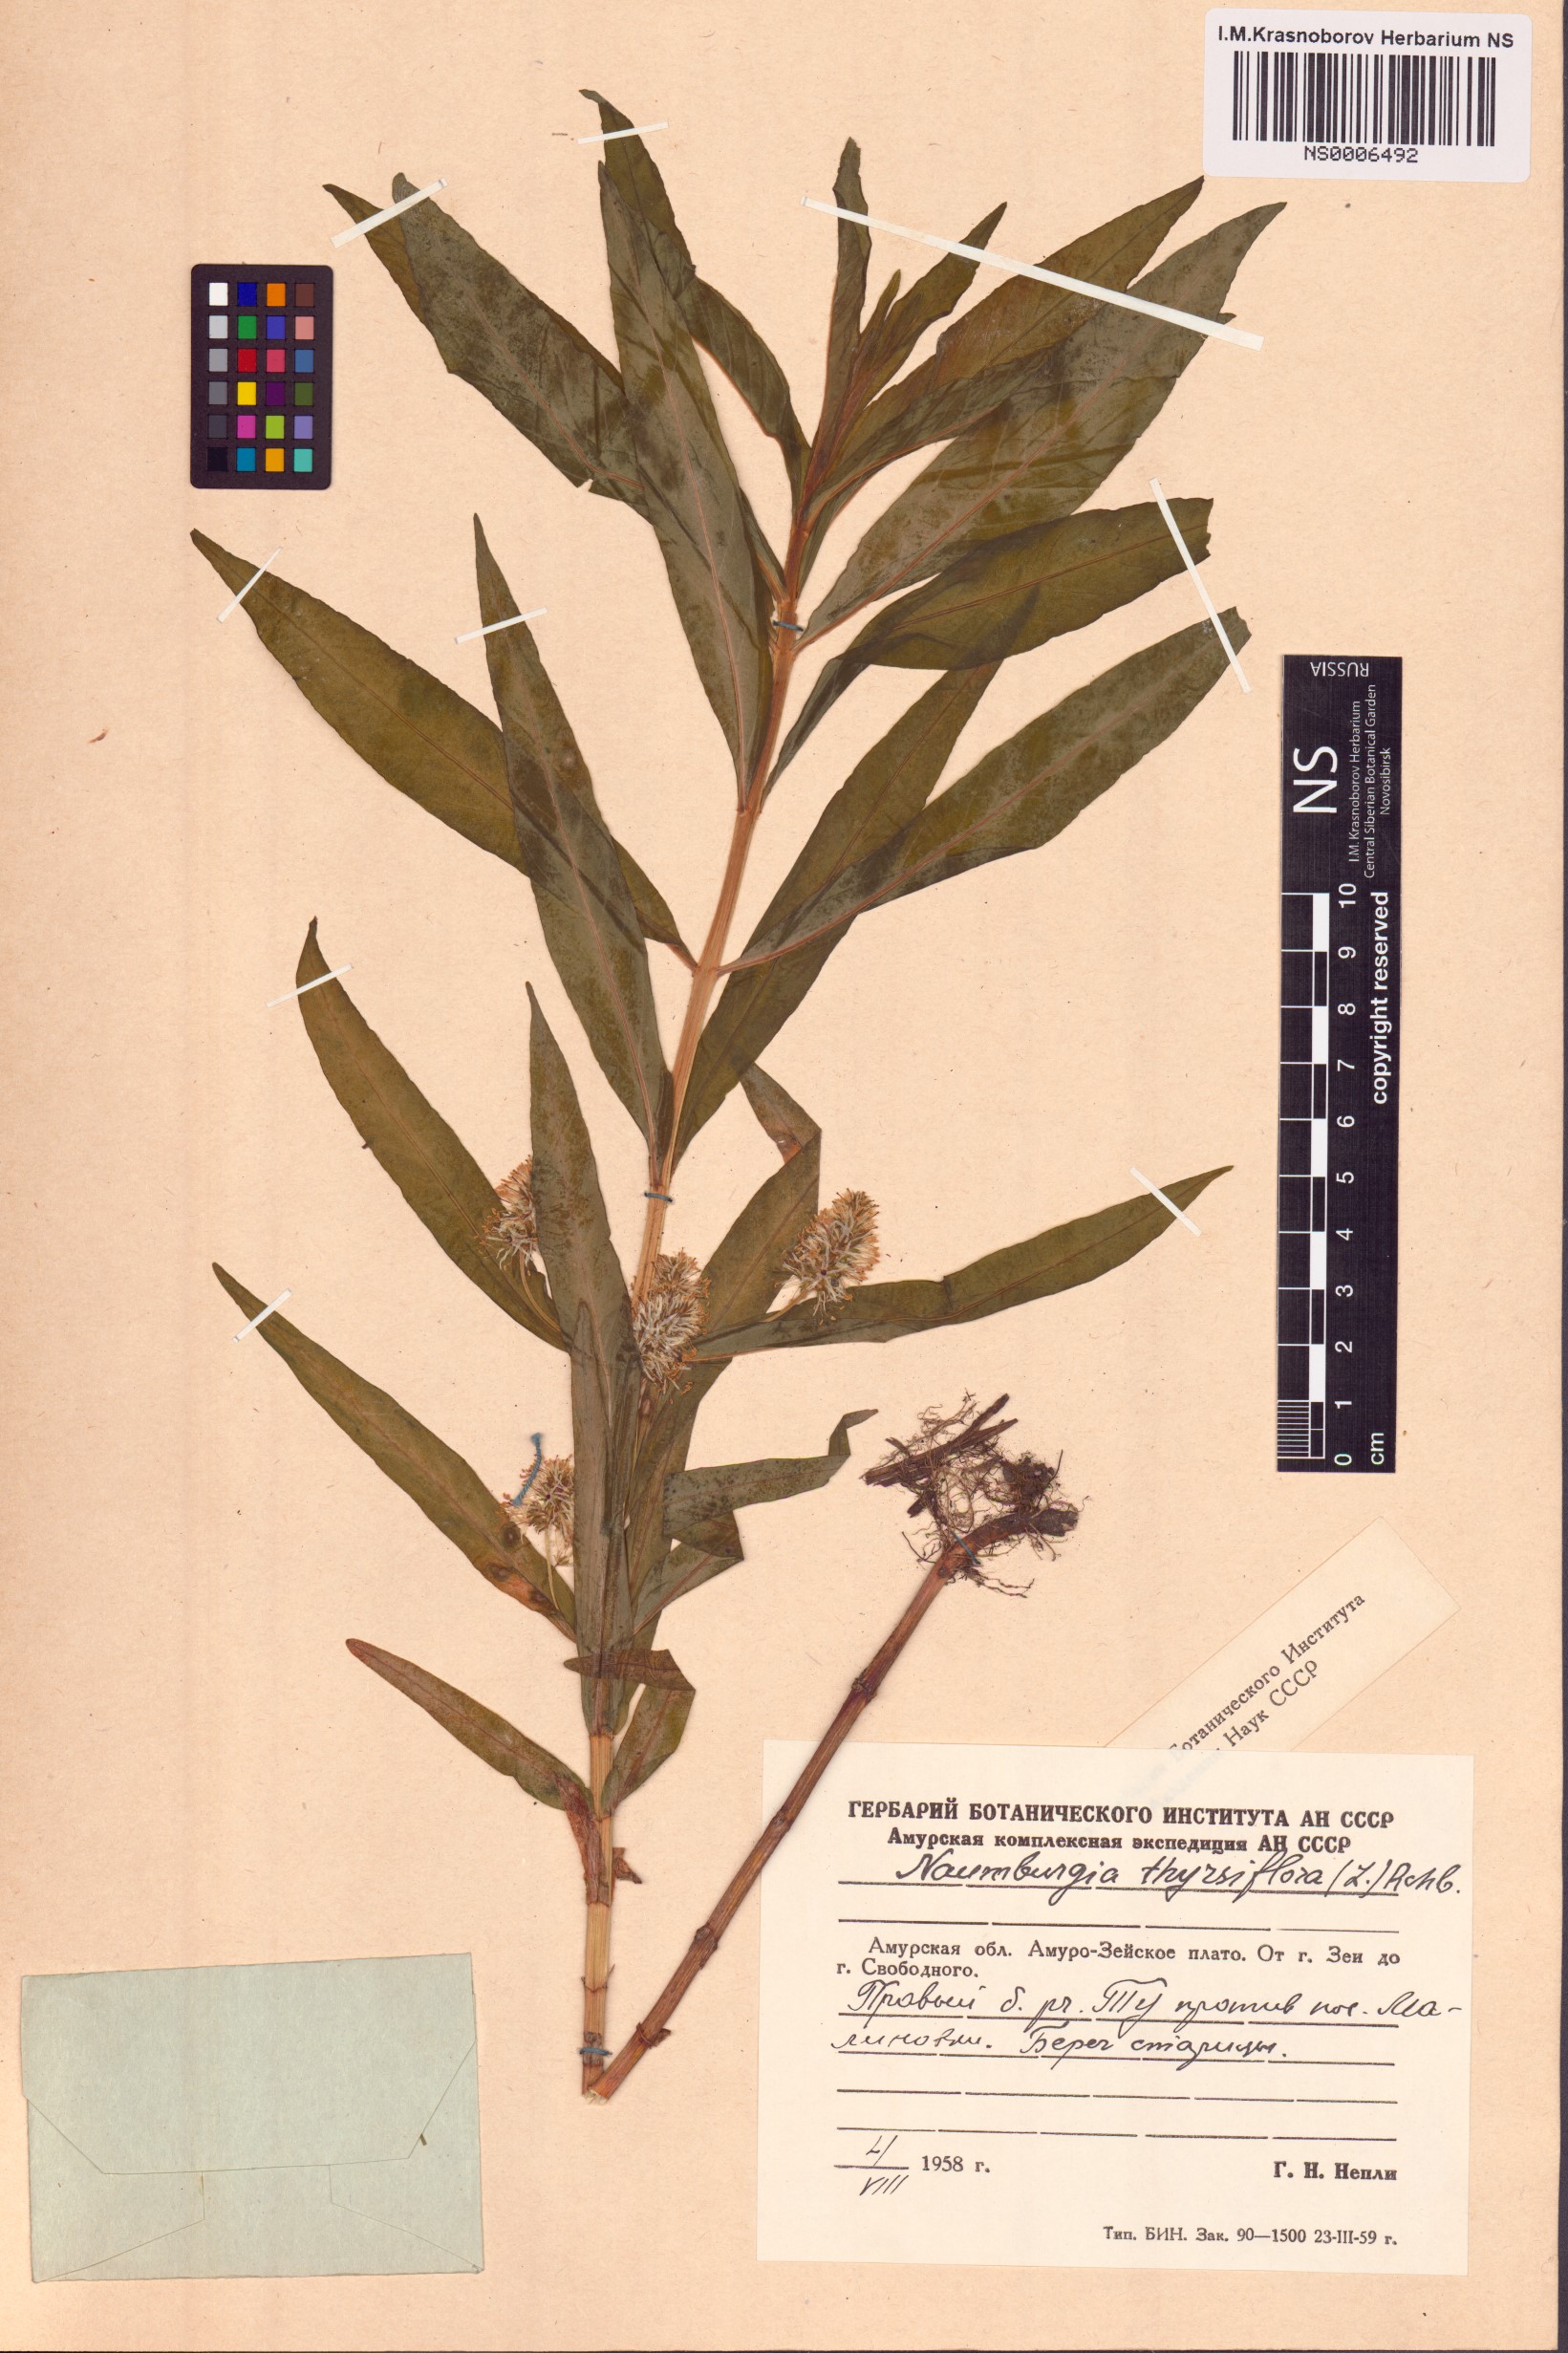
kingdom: Plantae
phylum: Tracheophyta
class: Magnoliopsida
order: Ericales
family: Primulaceae
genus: Lysimachia
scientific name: Lysimachia thyrsiflora
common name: Tufted loosestrife
